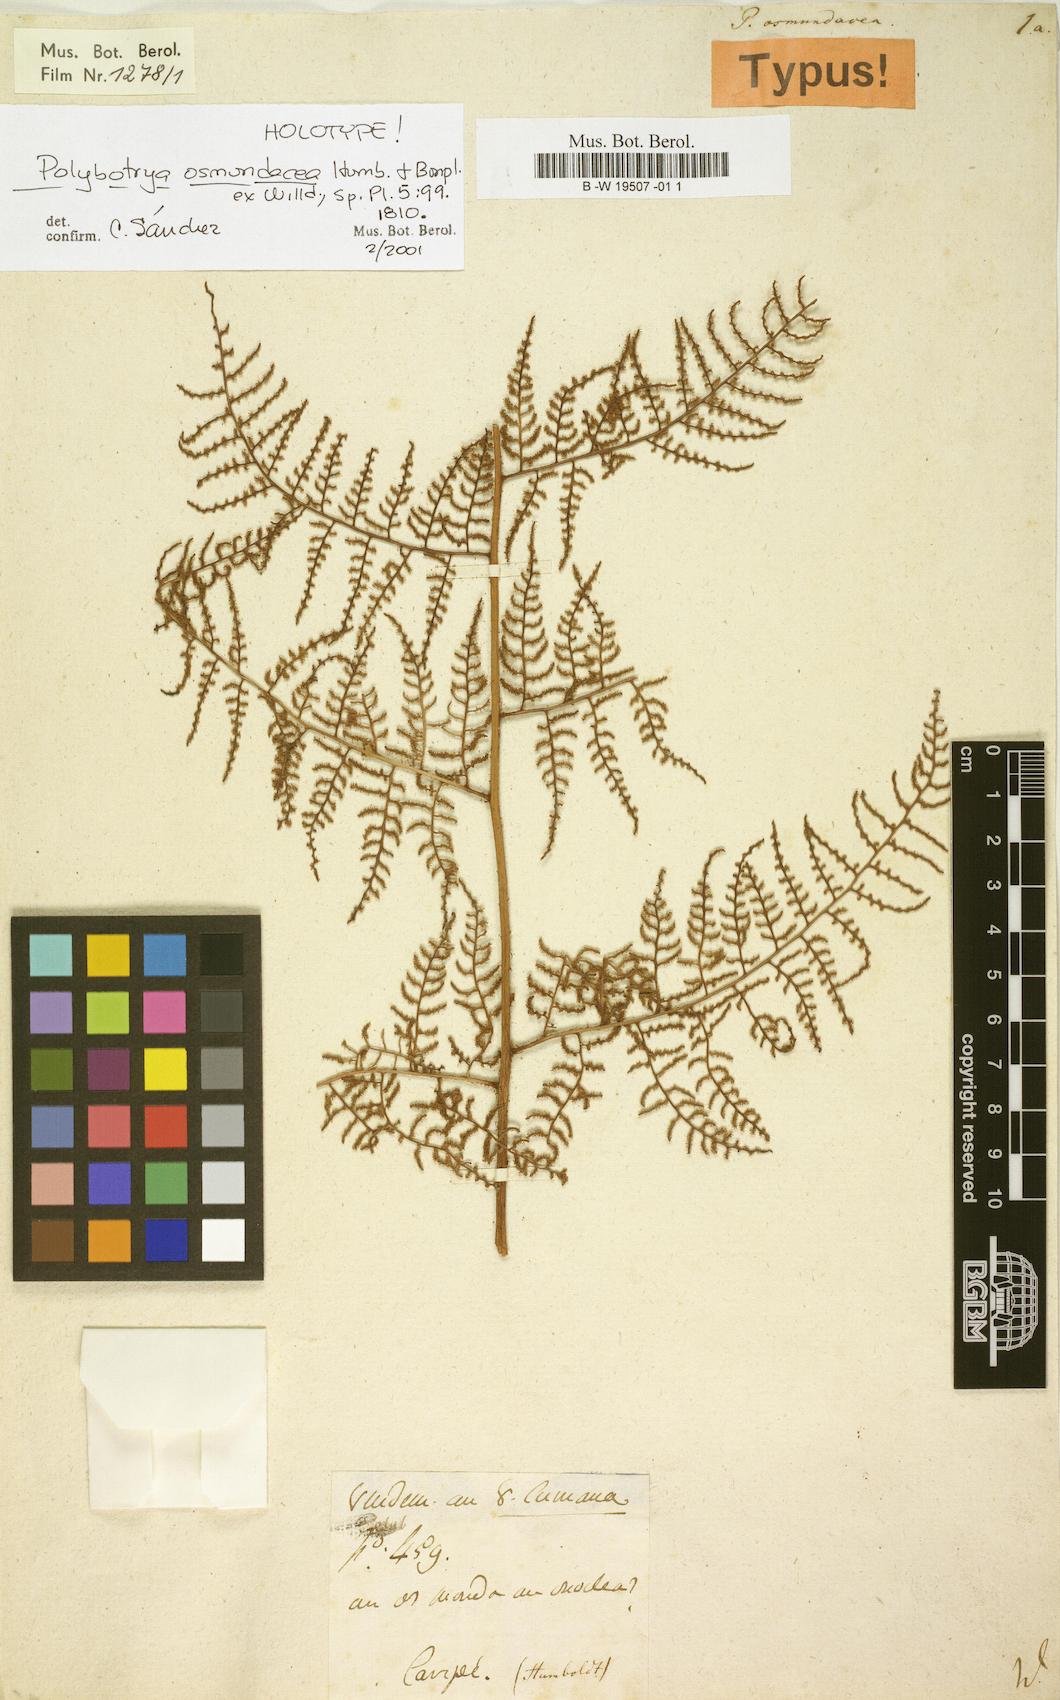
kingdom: Plantae
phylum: Tracheophyta
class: Polypodiopsida
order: Polypodiales
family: Dryopteridaceae
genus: Polybotrya
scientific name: Polybotrya osmundacea
